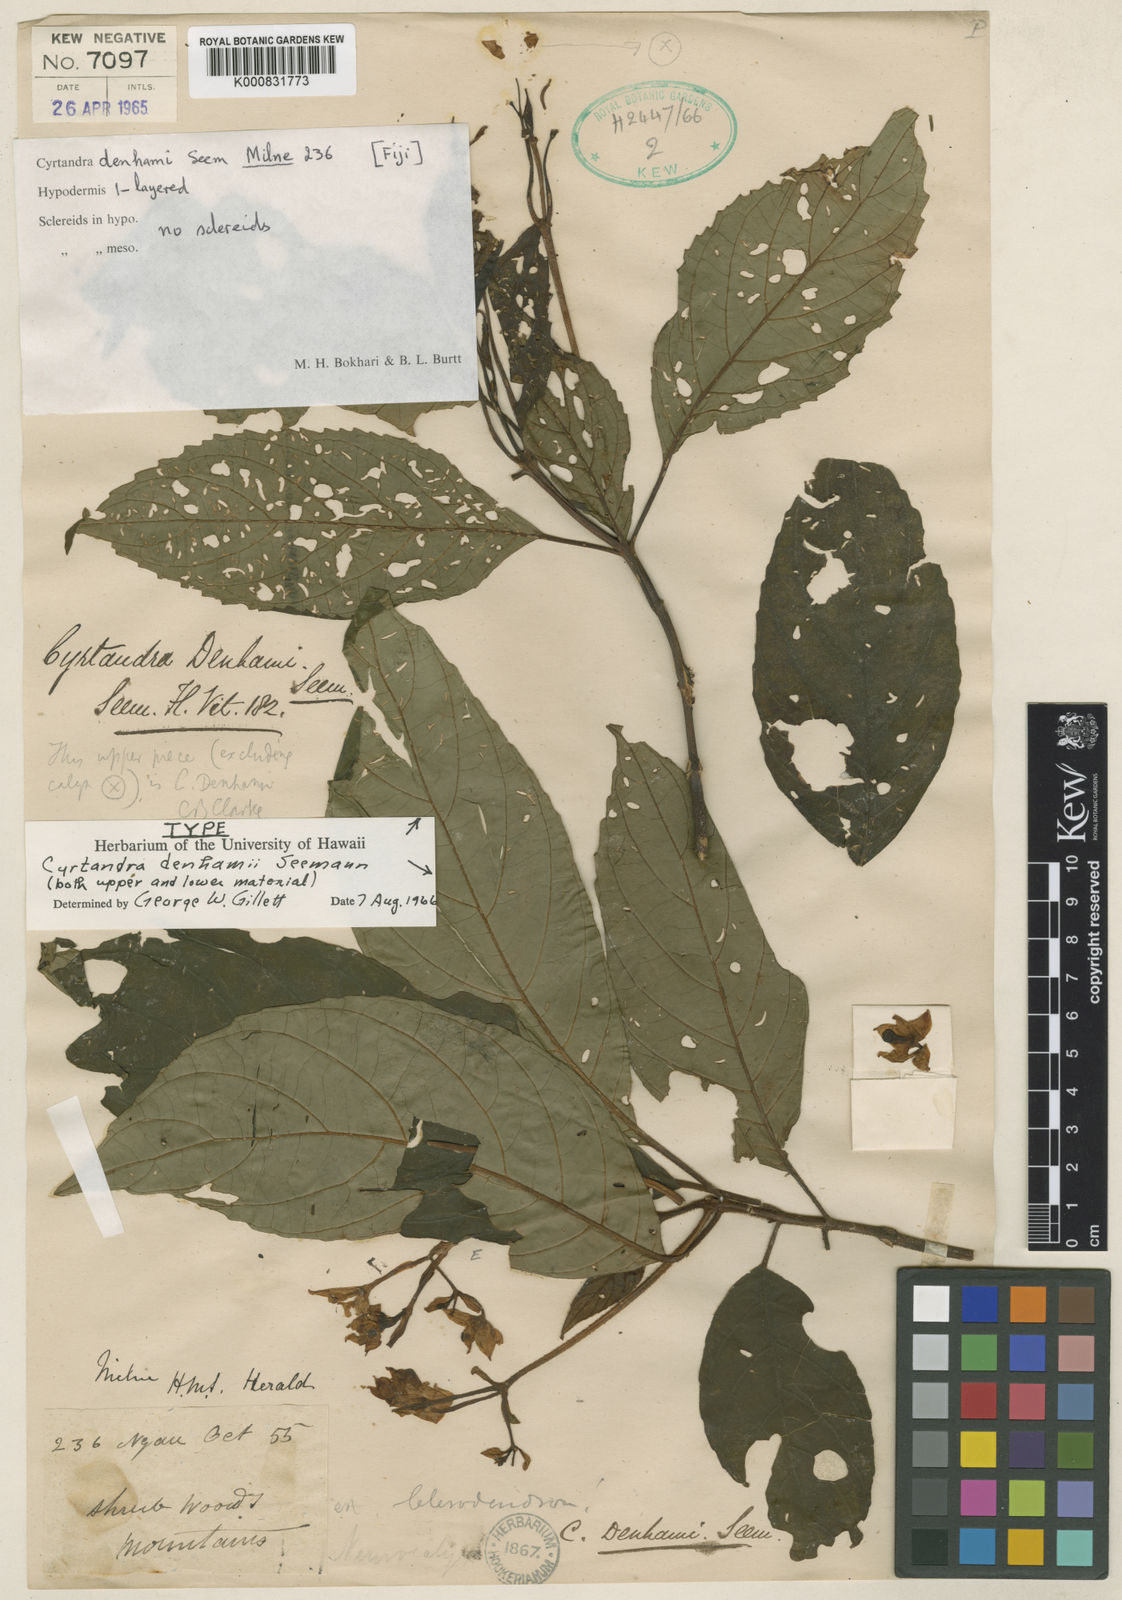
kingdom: Plantae
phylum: Tracheophyta
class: Magnoliopsida
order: Lamiales
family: Gesneriaceae
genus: Cyrtandra
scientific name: Cyrtandra denhamii
